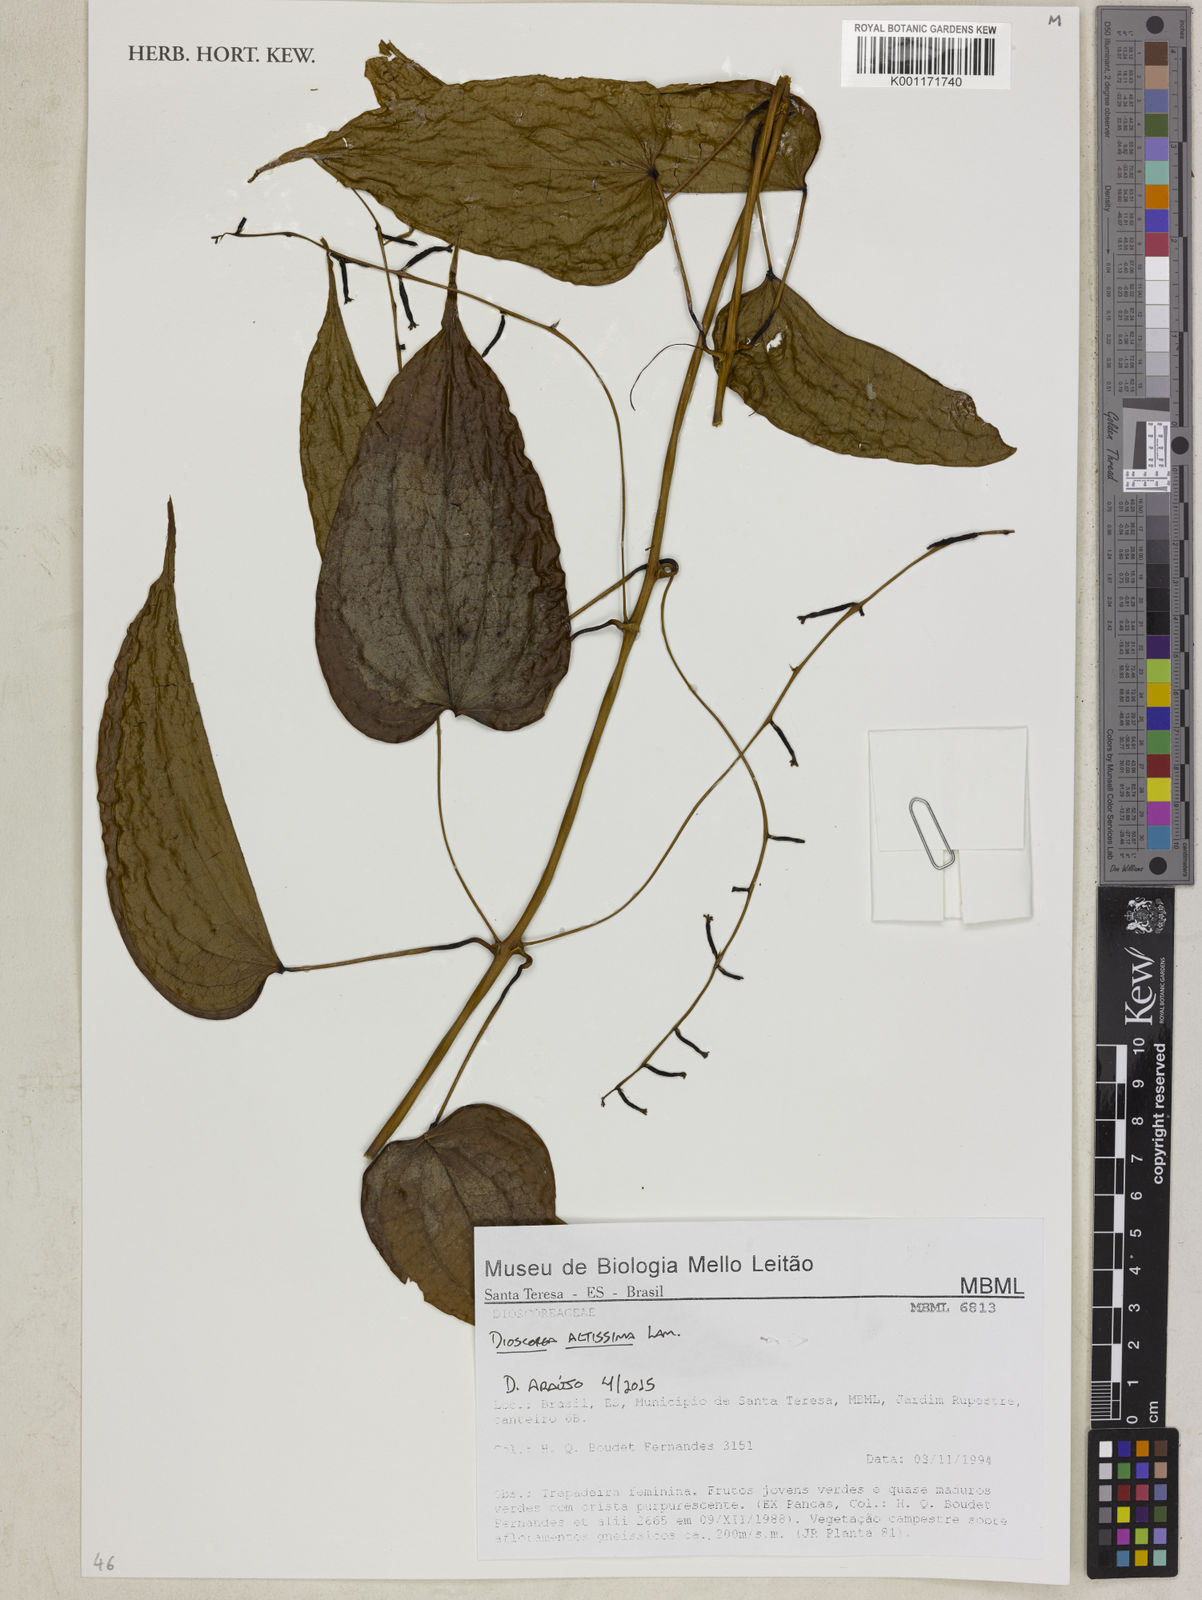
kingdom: Plantae
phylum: Tracheophyta
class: Liliopsida
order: Dioscoreales
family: Dioscoreaceae
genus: Dioscorea
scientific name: Dioscorea chondrocarpa
